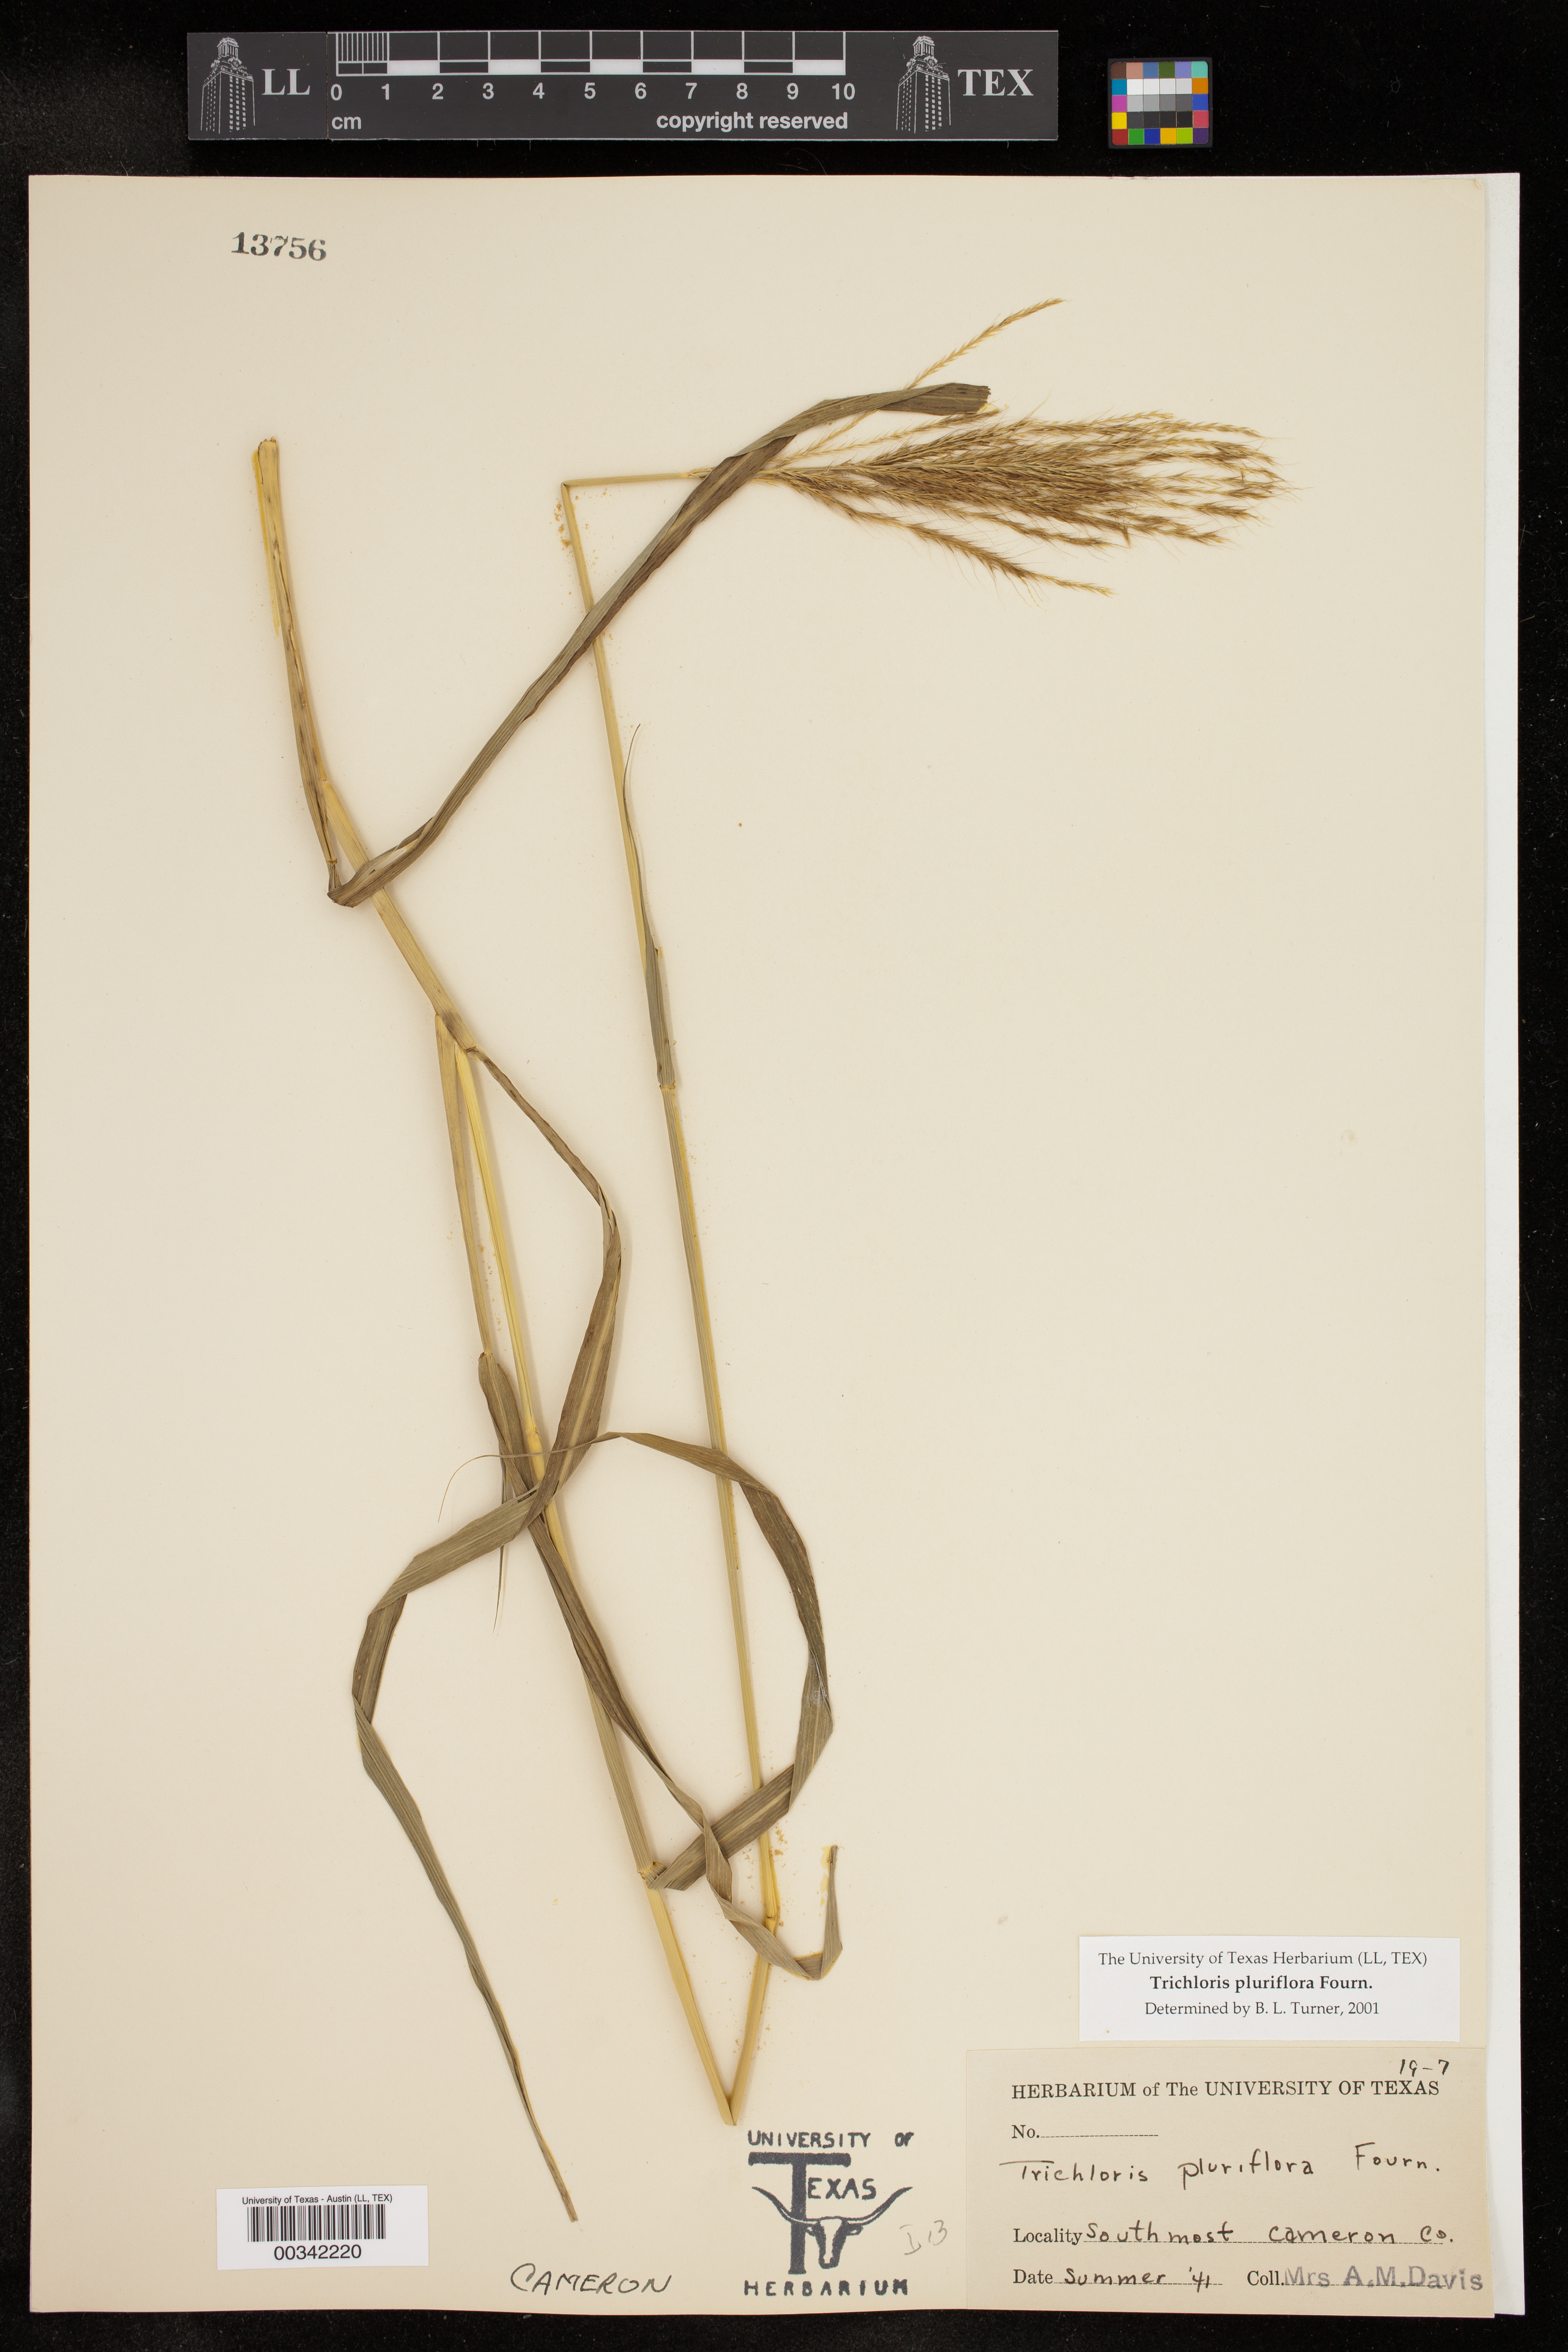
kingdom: Plantae
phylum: Tracheophyta
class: Liliopsida
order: Poales
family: Poaceae
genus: Leptochloa
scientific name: Leptochloa pluriflora
